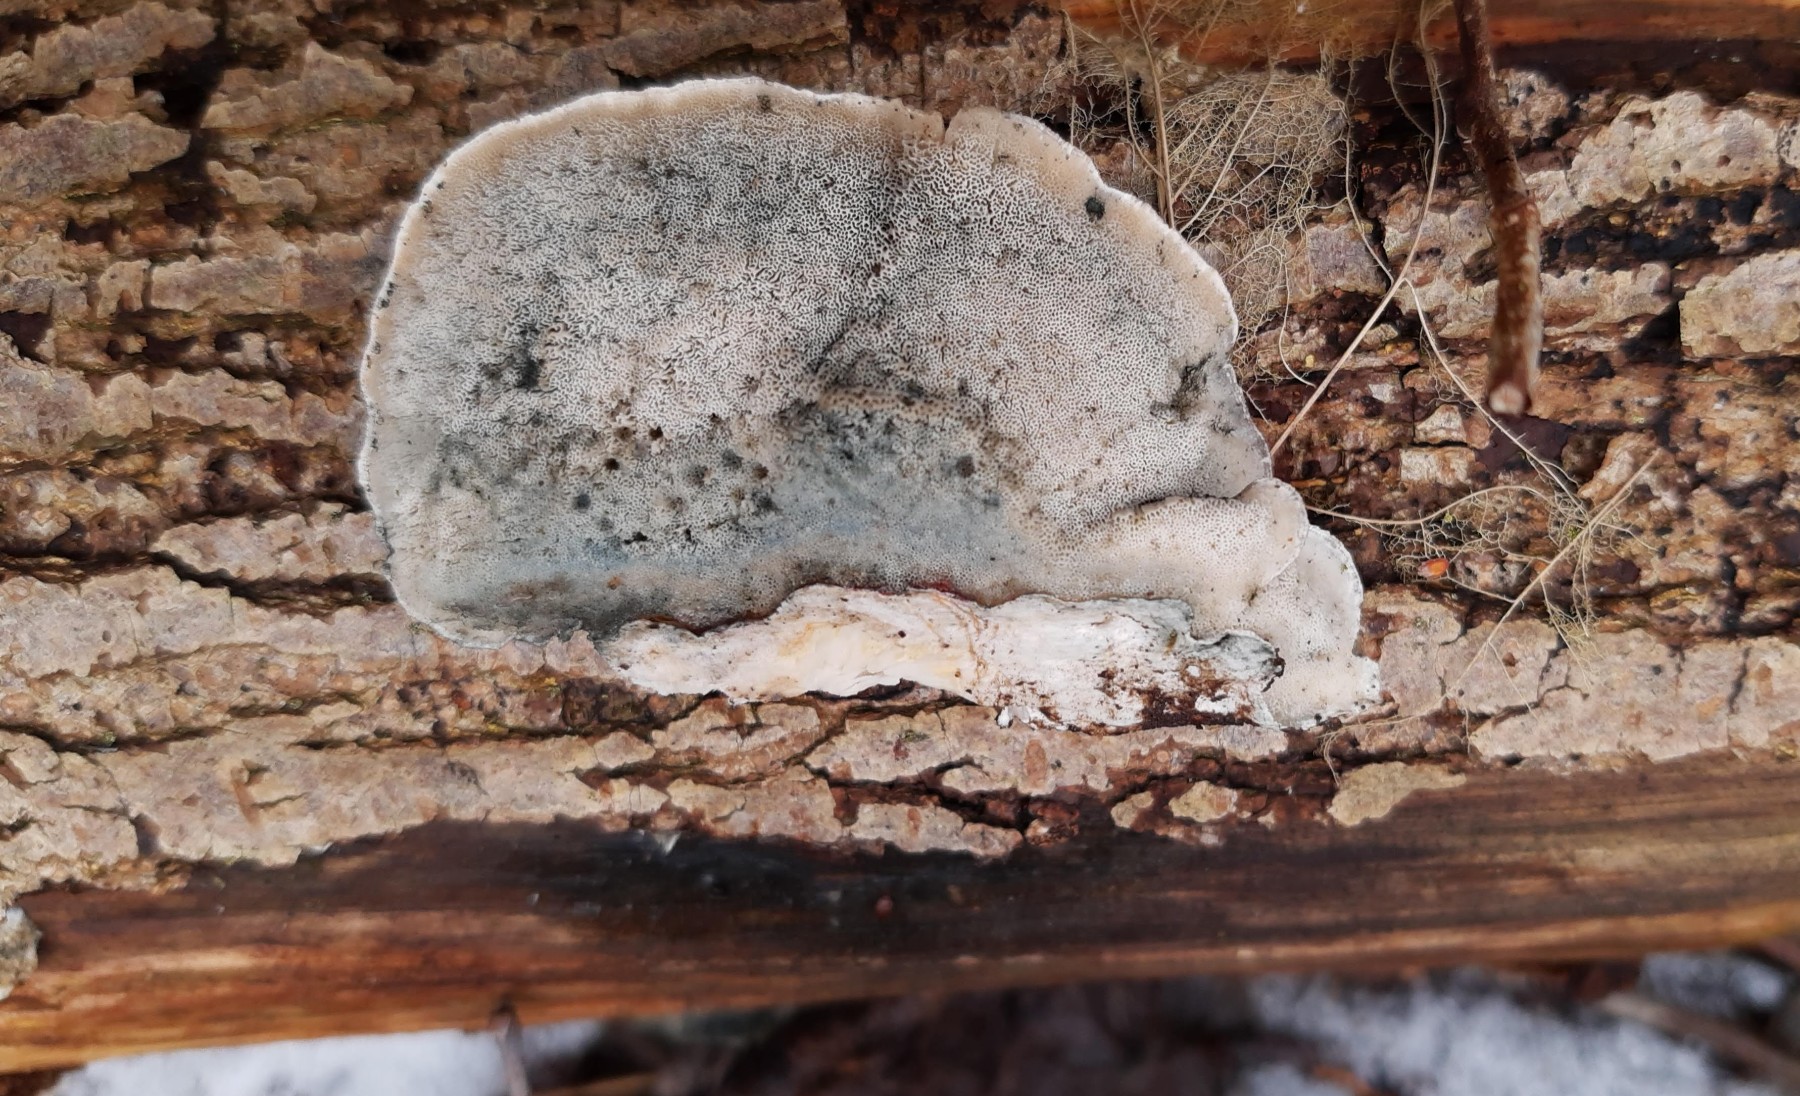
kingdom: Fungi
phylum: Basidiomycota
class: Agaricomycetes
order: Polyporales
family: Polyporaceae
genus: Cyanosporus
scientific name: Cyanosporus alni
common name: blegblå kødporesvamp
